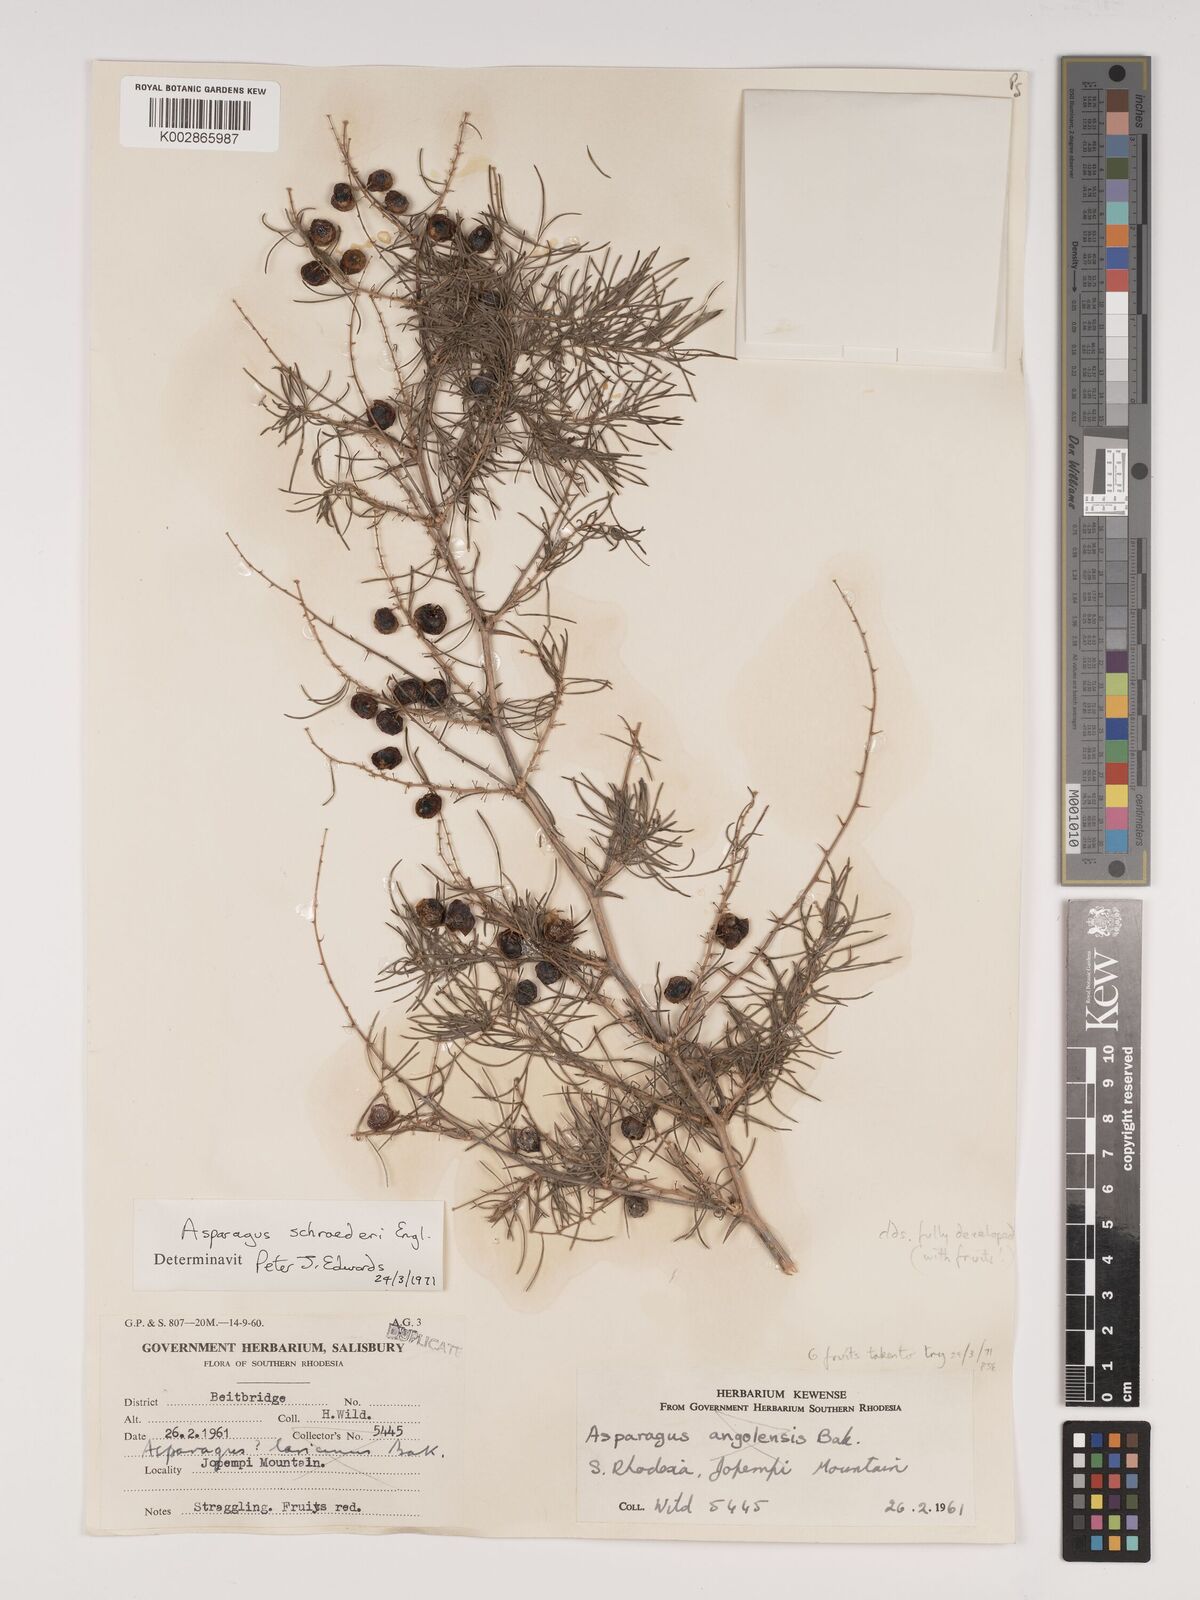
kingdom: Plantae
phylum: Tracheophyta
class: Liliopsida
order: Asparagales
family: Asparagaceae
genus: Asparagus
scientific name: Asparagus schroederi
